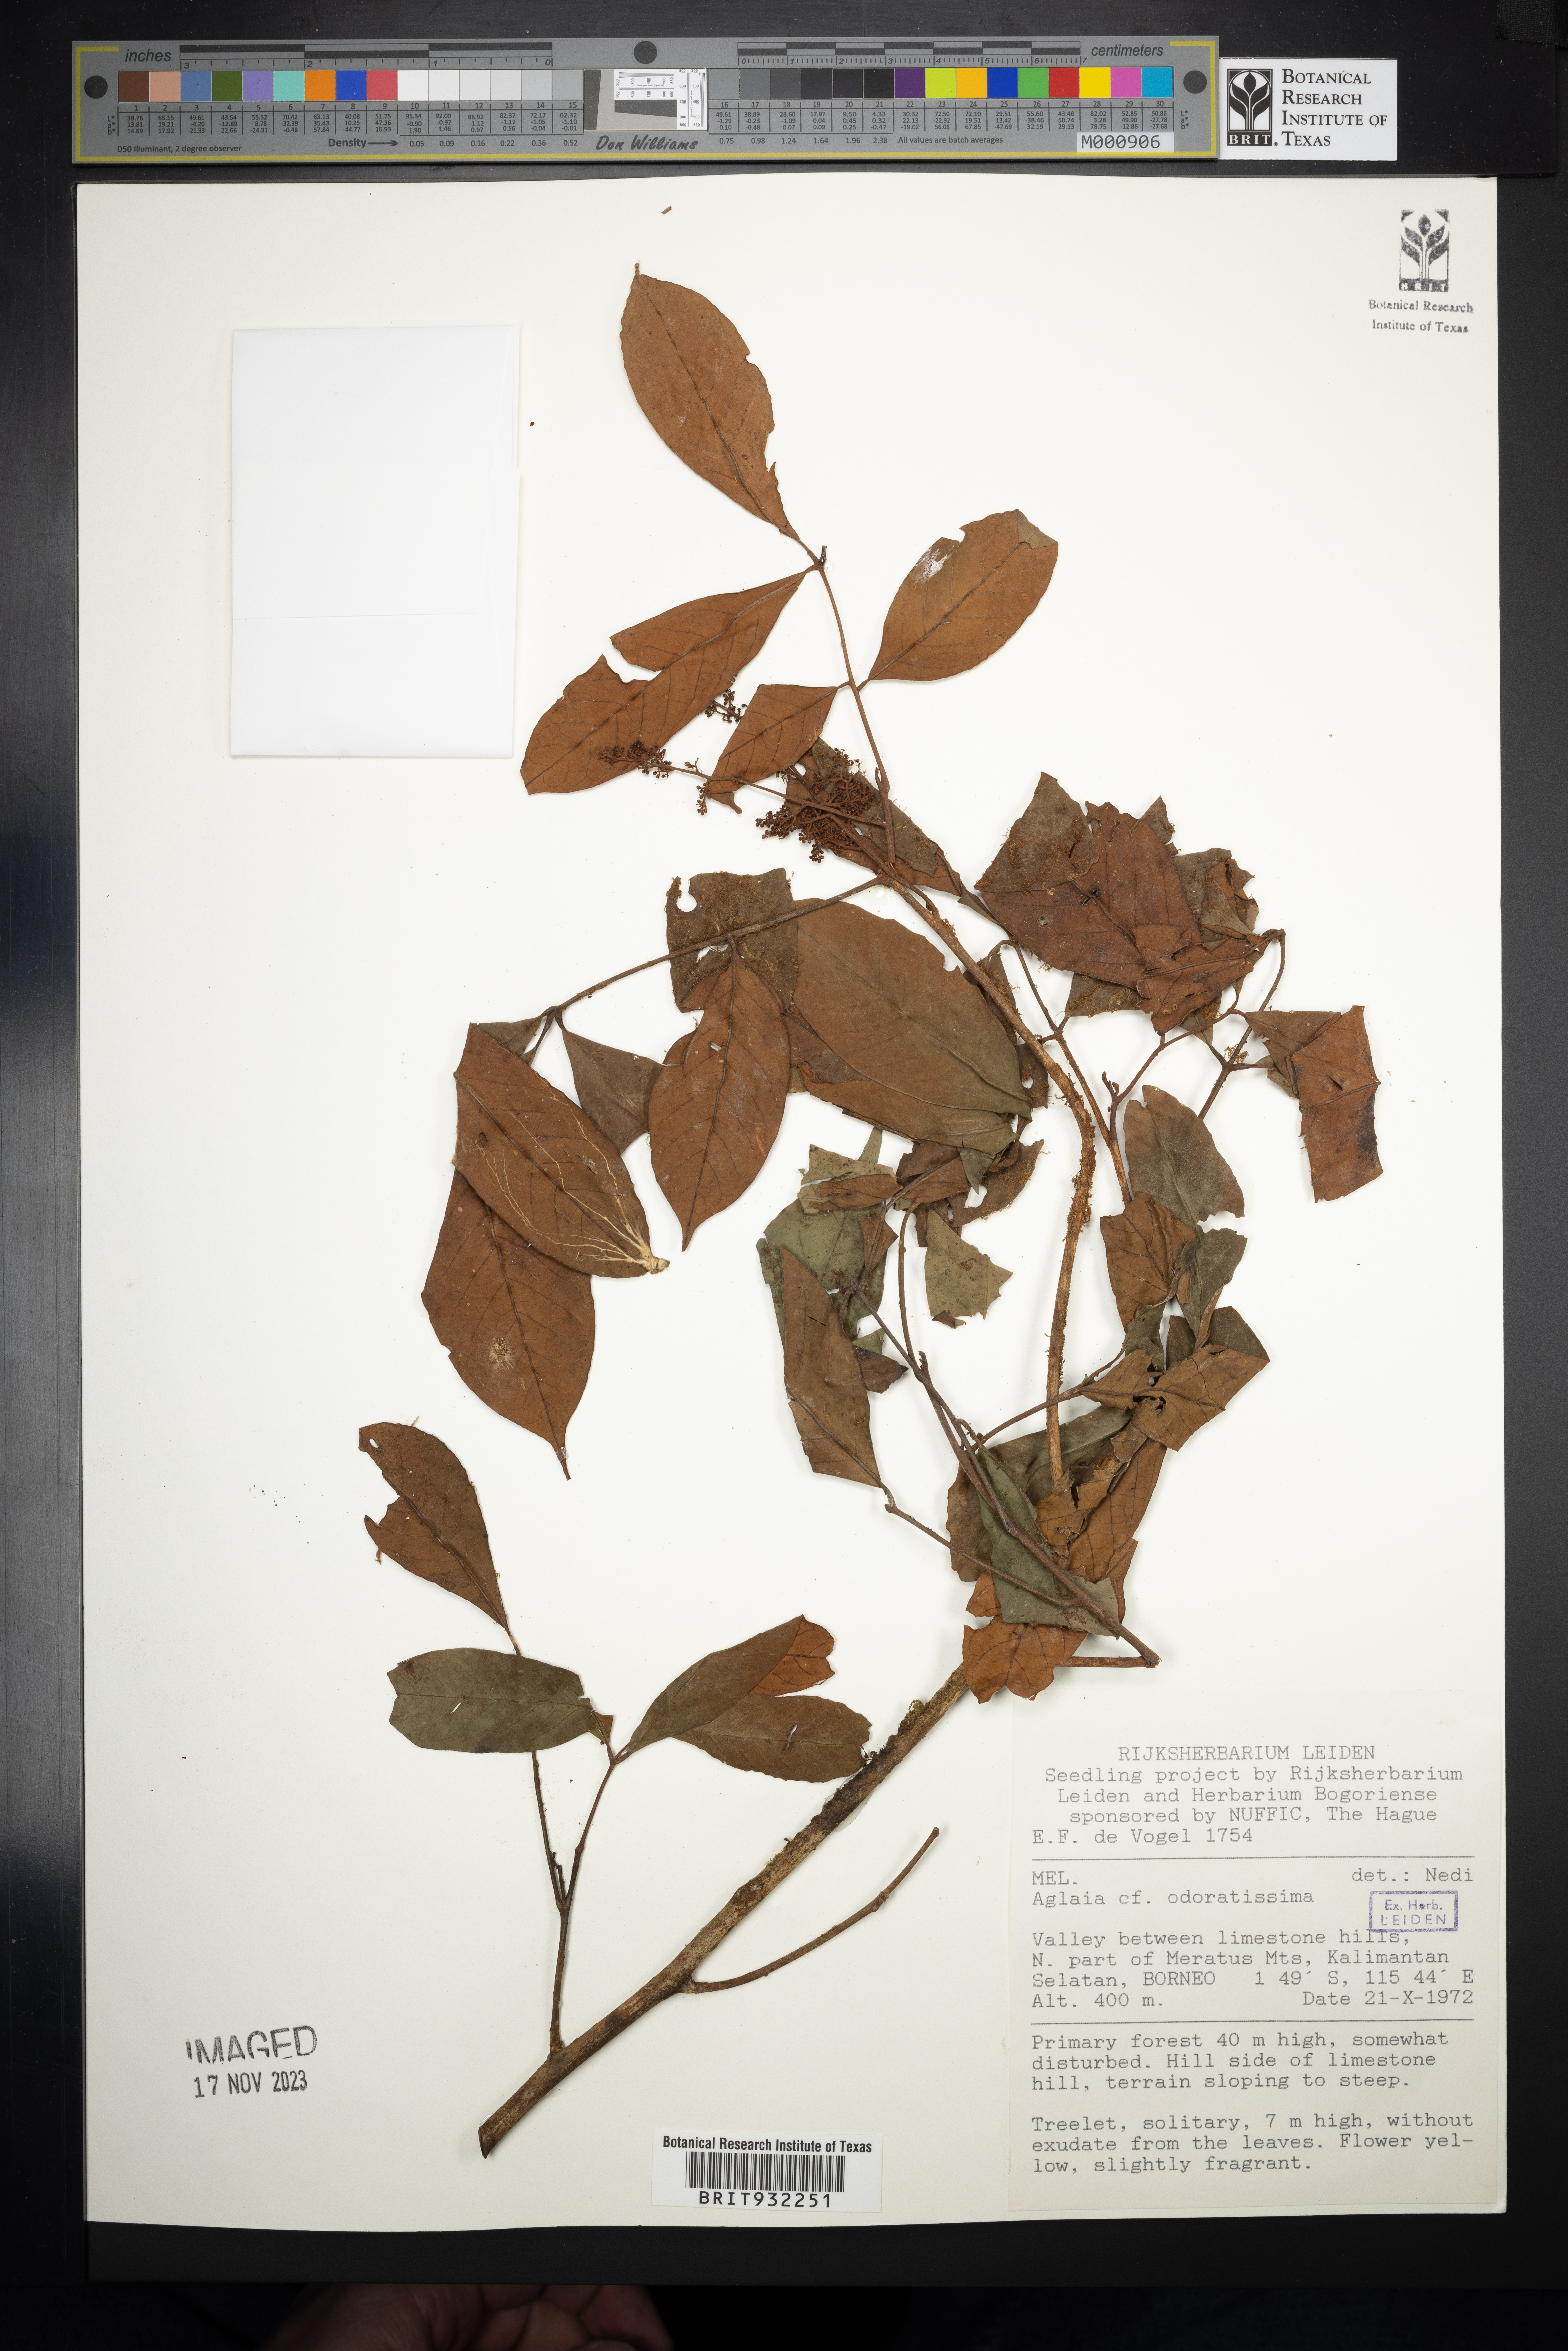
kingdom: Plantae
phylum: Tracheophyta
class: Magnoliopsida
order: Sapindales
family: Meliaceae
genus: Aglaia
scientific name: Aglaia
